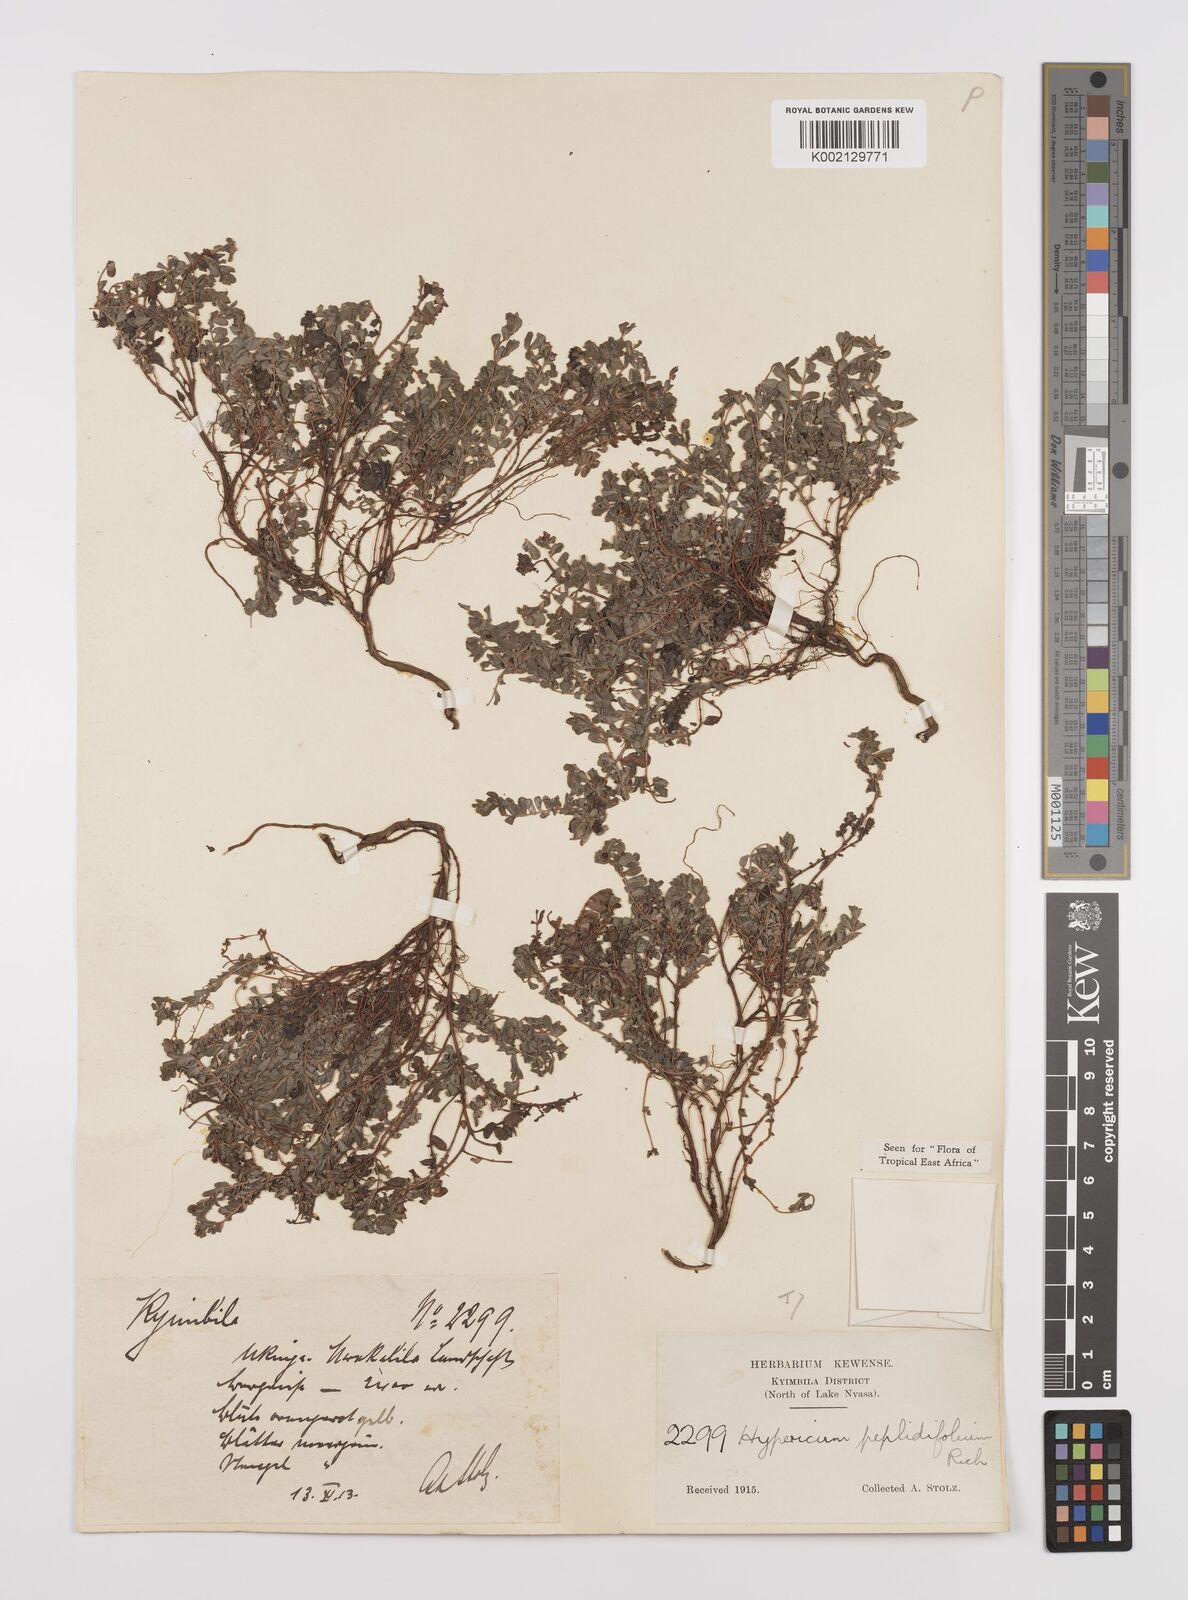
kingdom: Plantae
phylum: Tracheophyta
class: Magnoliopsida
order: Malpighiales
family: Hypericaceae
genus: Hypericum
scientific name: Hypericum peplidifolium
